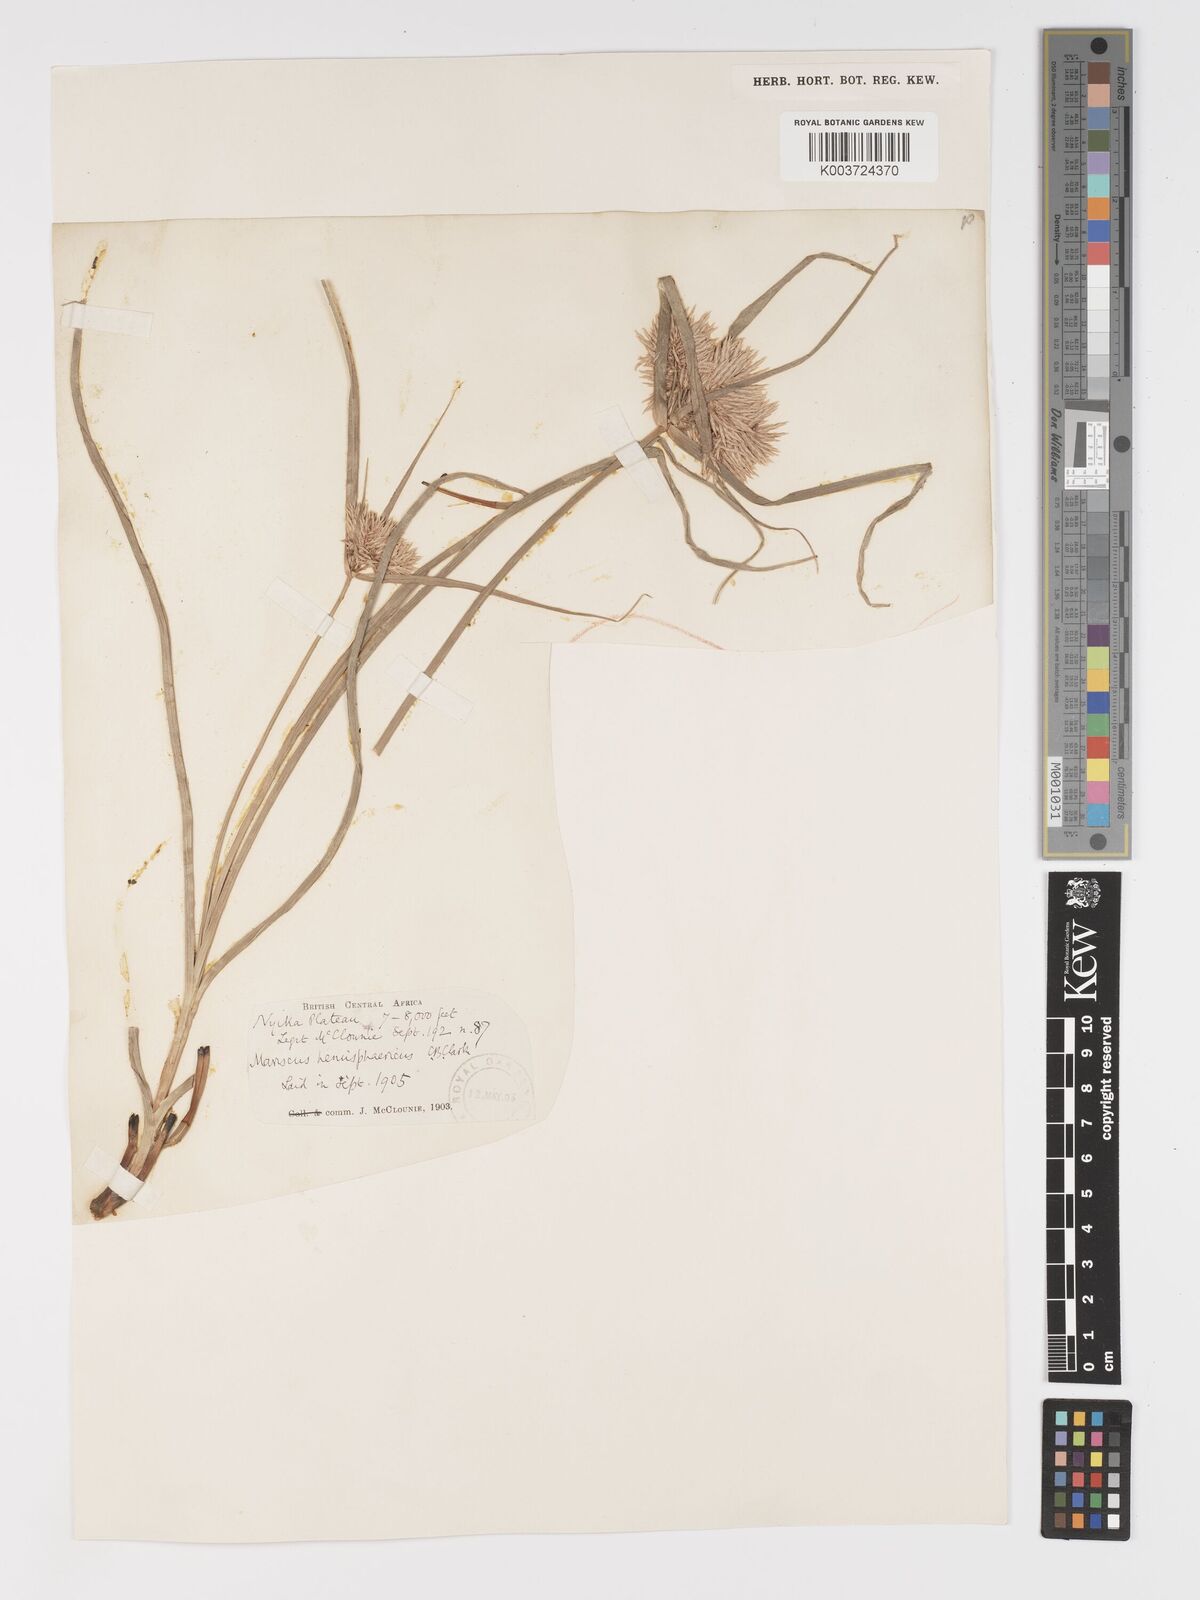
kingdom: Plantae
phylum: Tracheophyta
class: Liliopsida
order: Poales
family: Cyperaceae
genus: Cyperus
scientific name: Cyperus hemisphaericus
